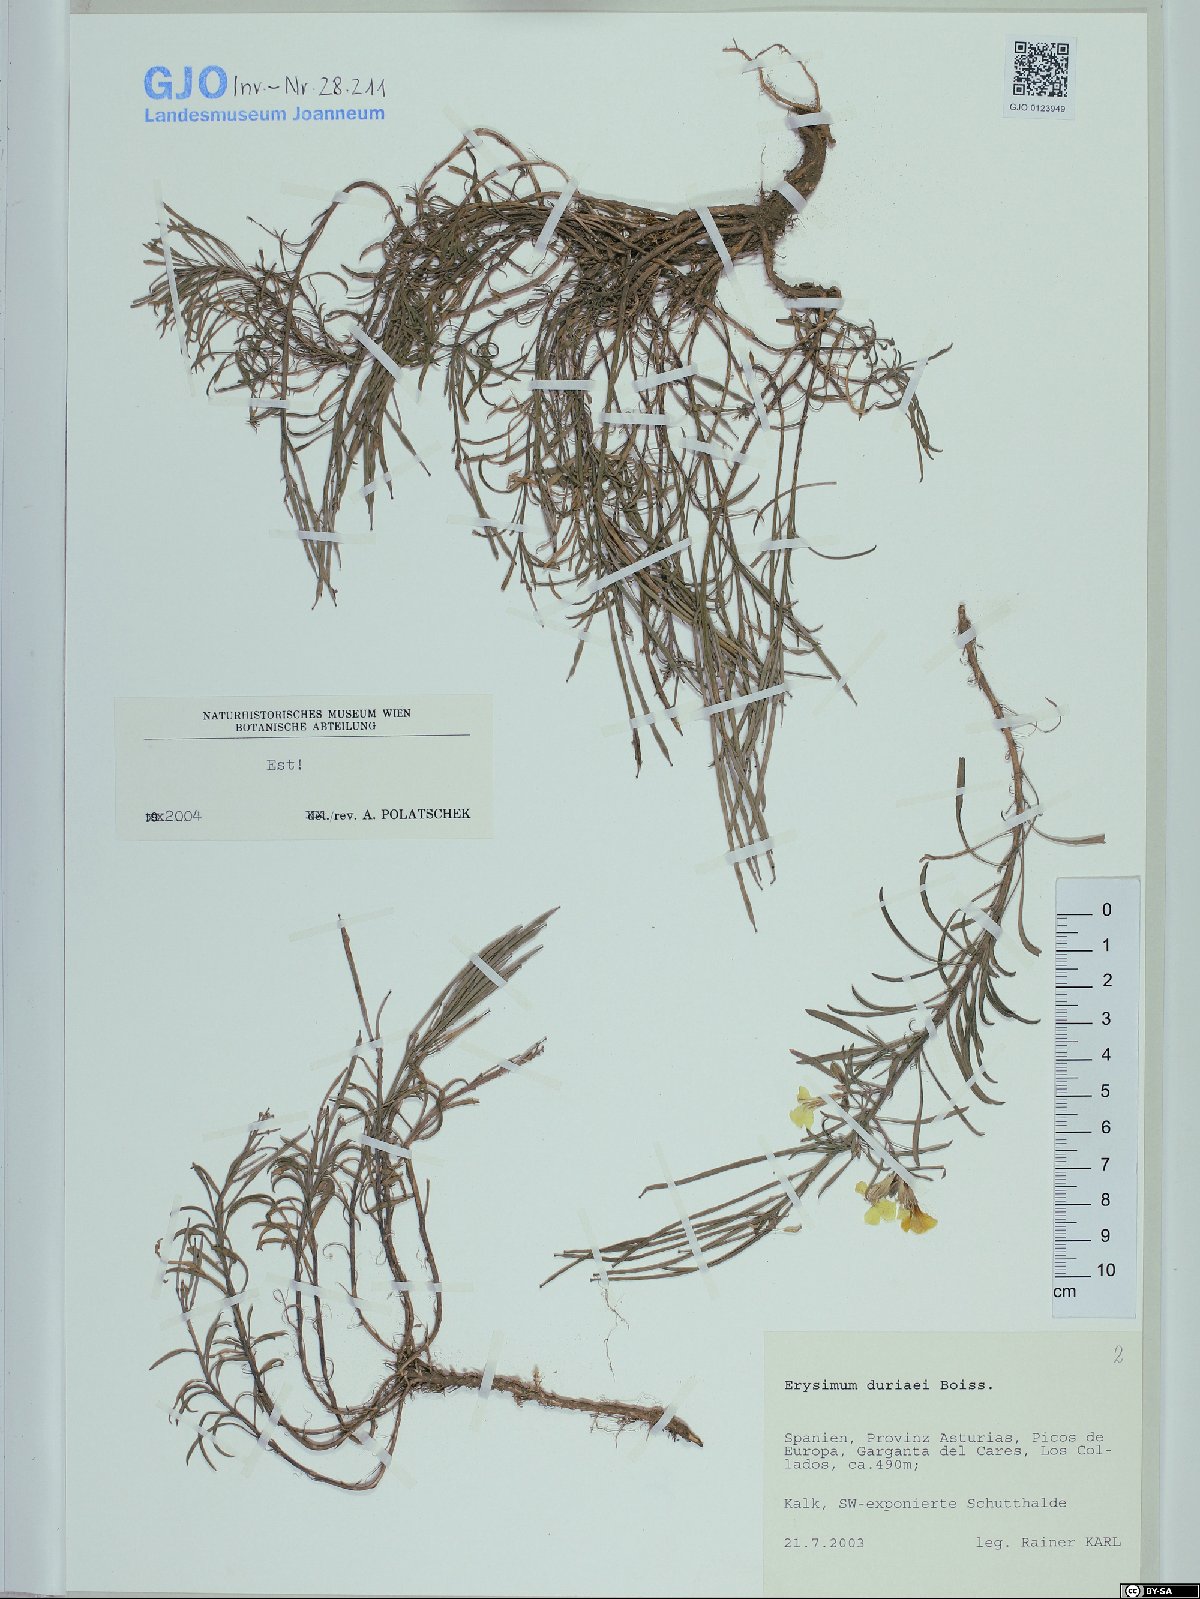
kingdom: Plantae
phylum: Tracheophyta
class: Magnoliopsida
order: Brassicales
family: Brassicaceae
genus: Erysimum
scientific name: Erysimum duriaei
